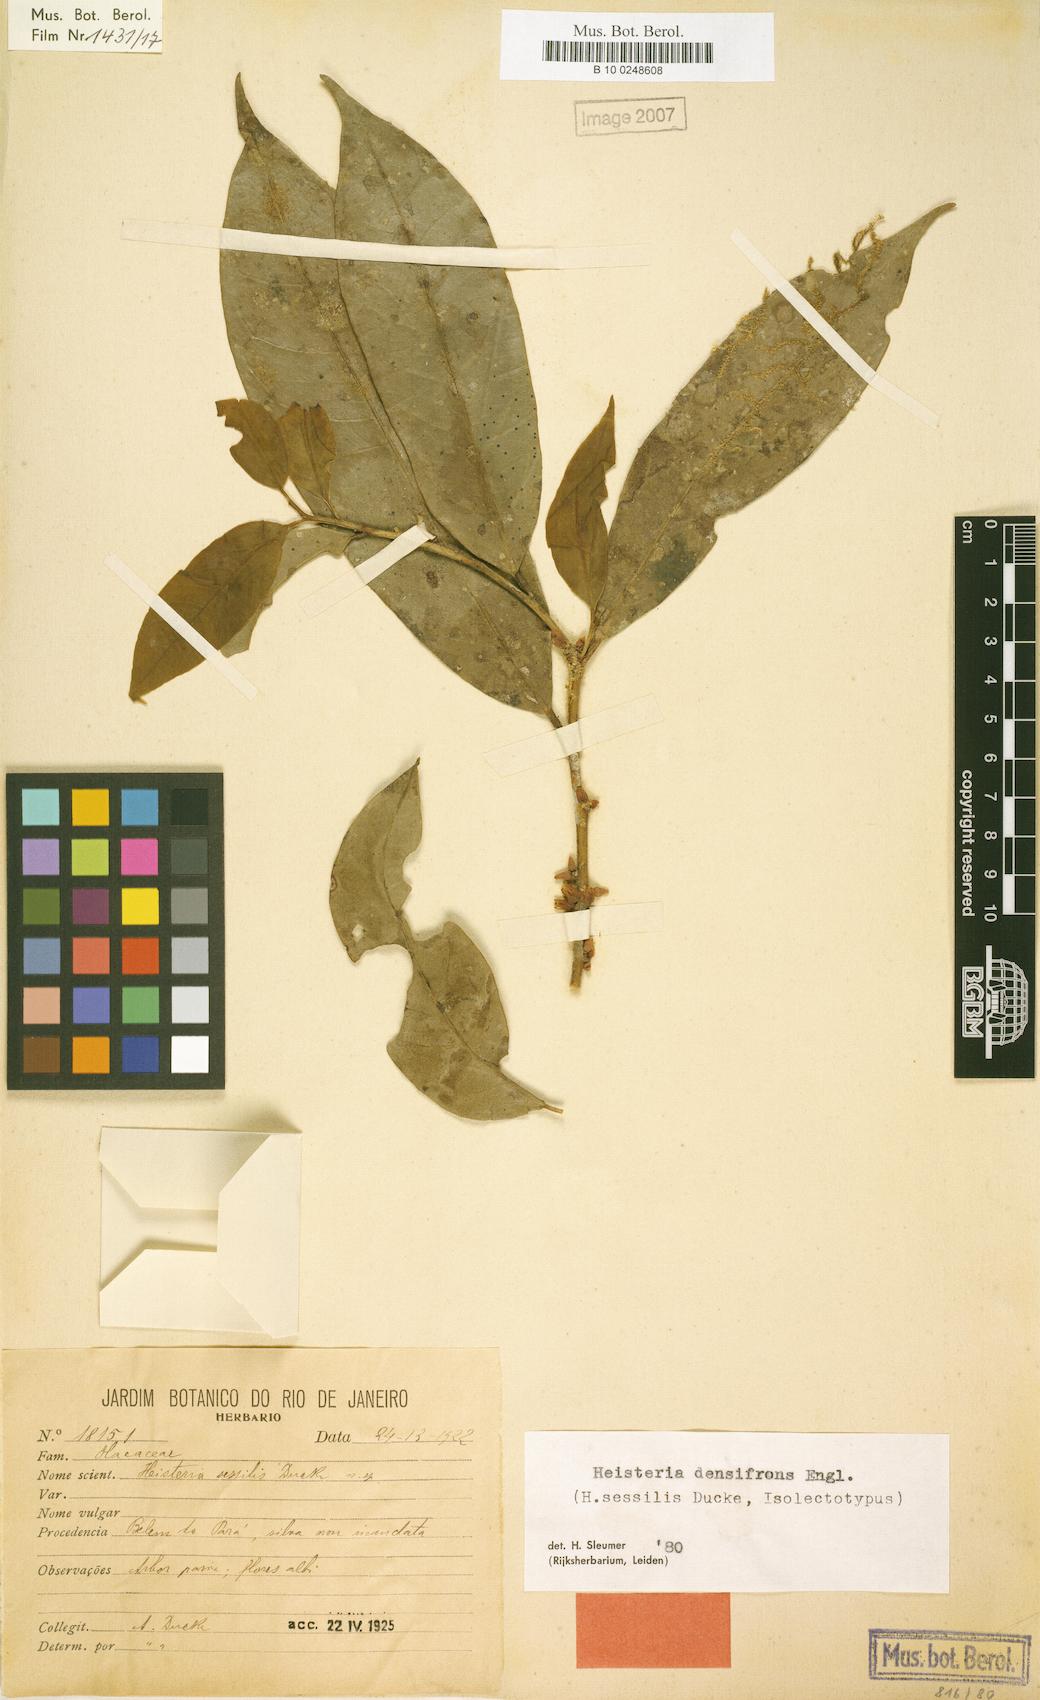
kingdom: Plantae
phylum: Tracheophyta
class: Magnoliopsida
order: Santalales
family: Erythropalaceae
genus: Heisteria
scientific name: Heisteria densifrons
